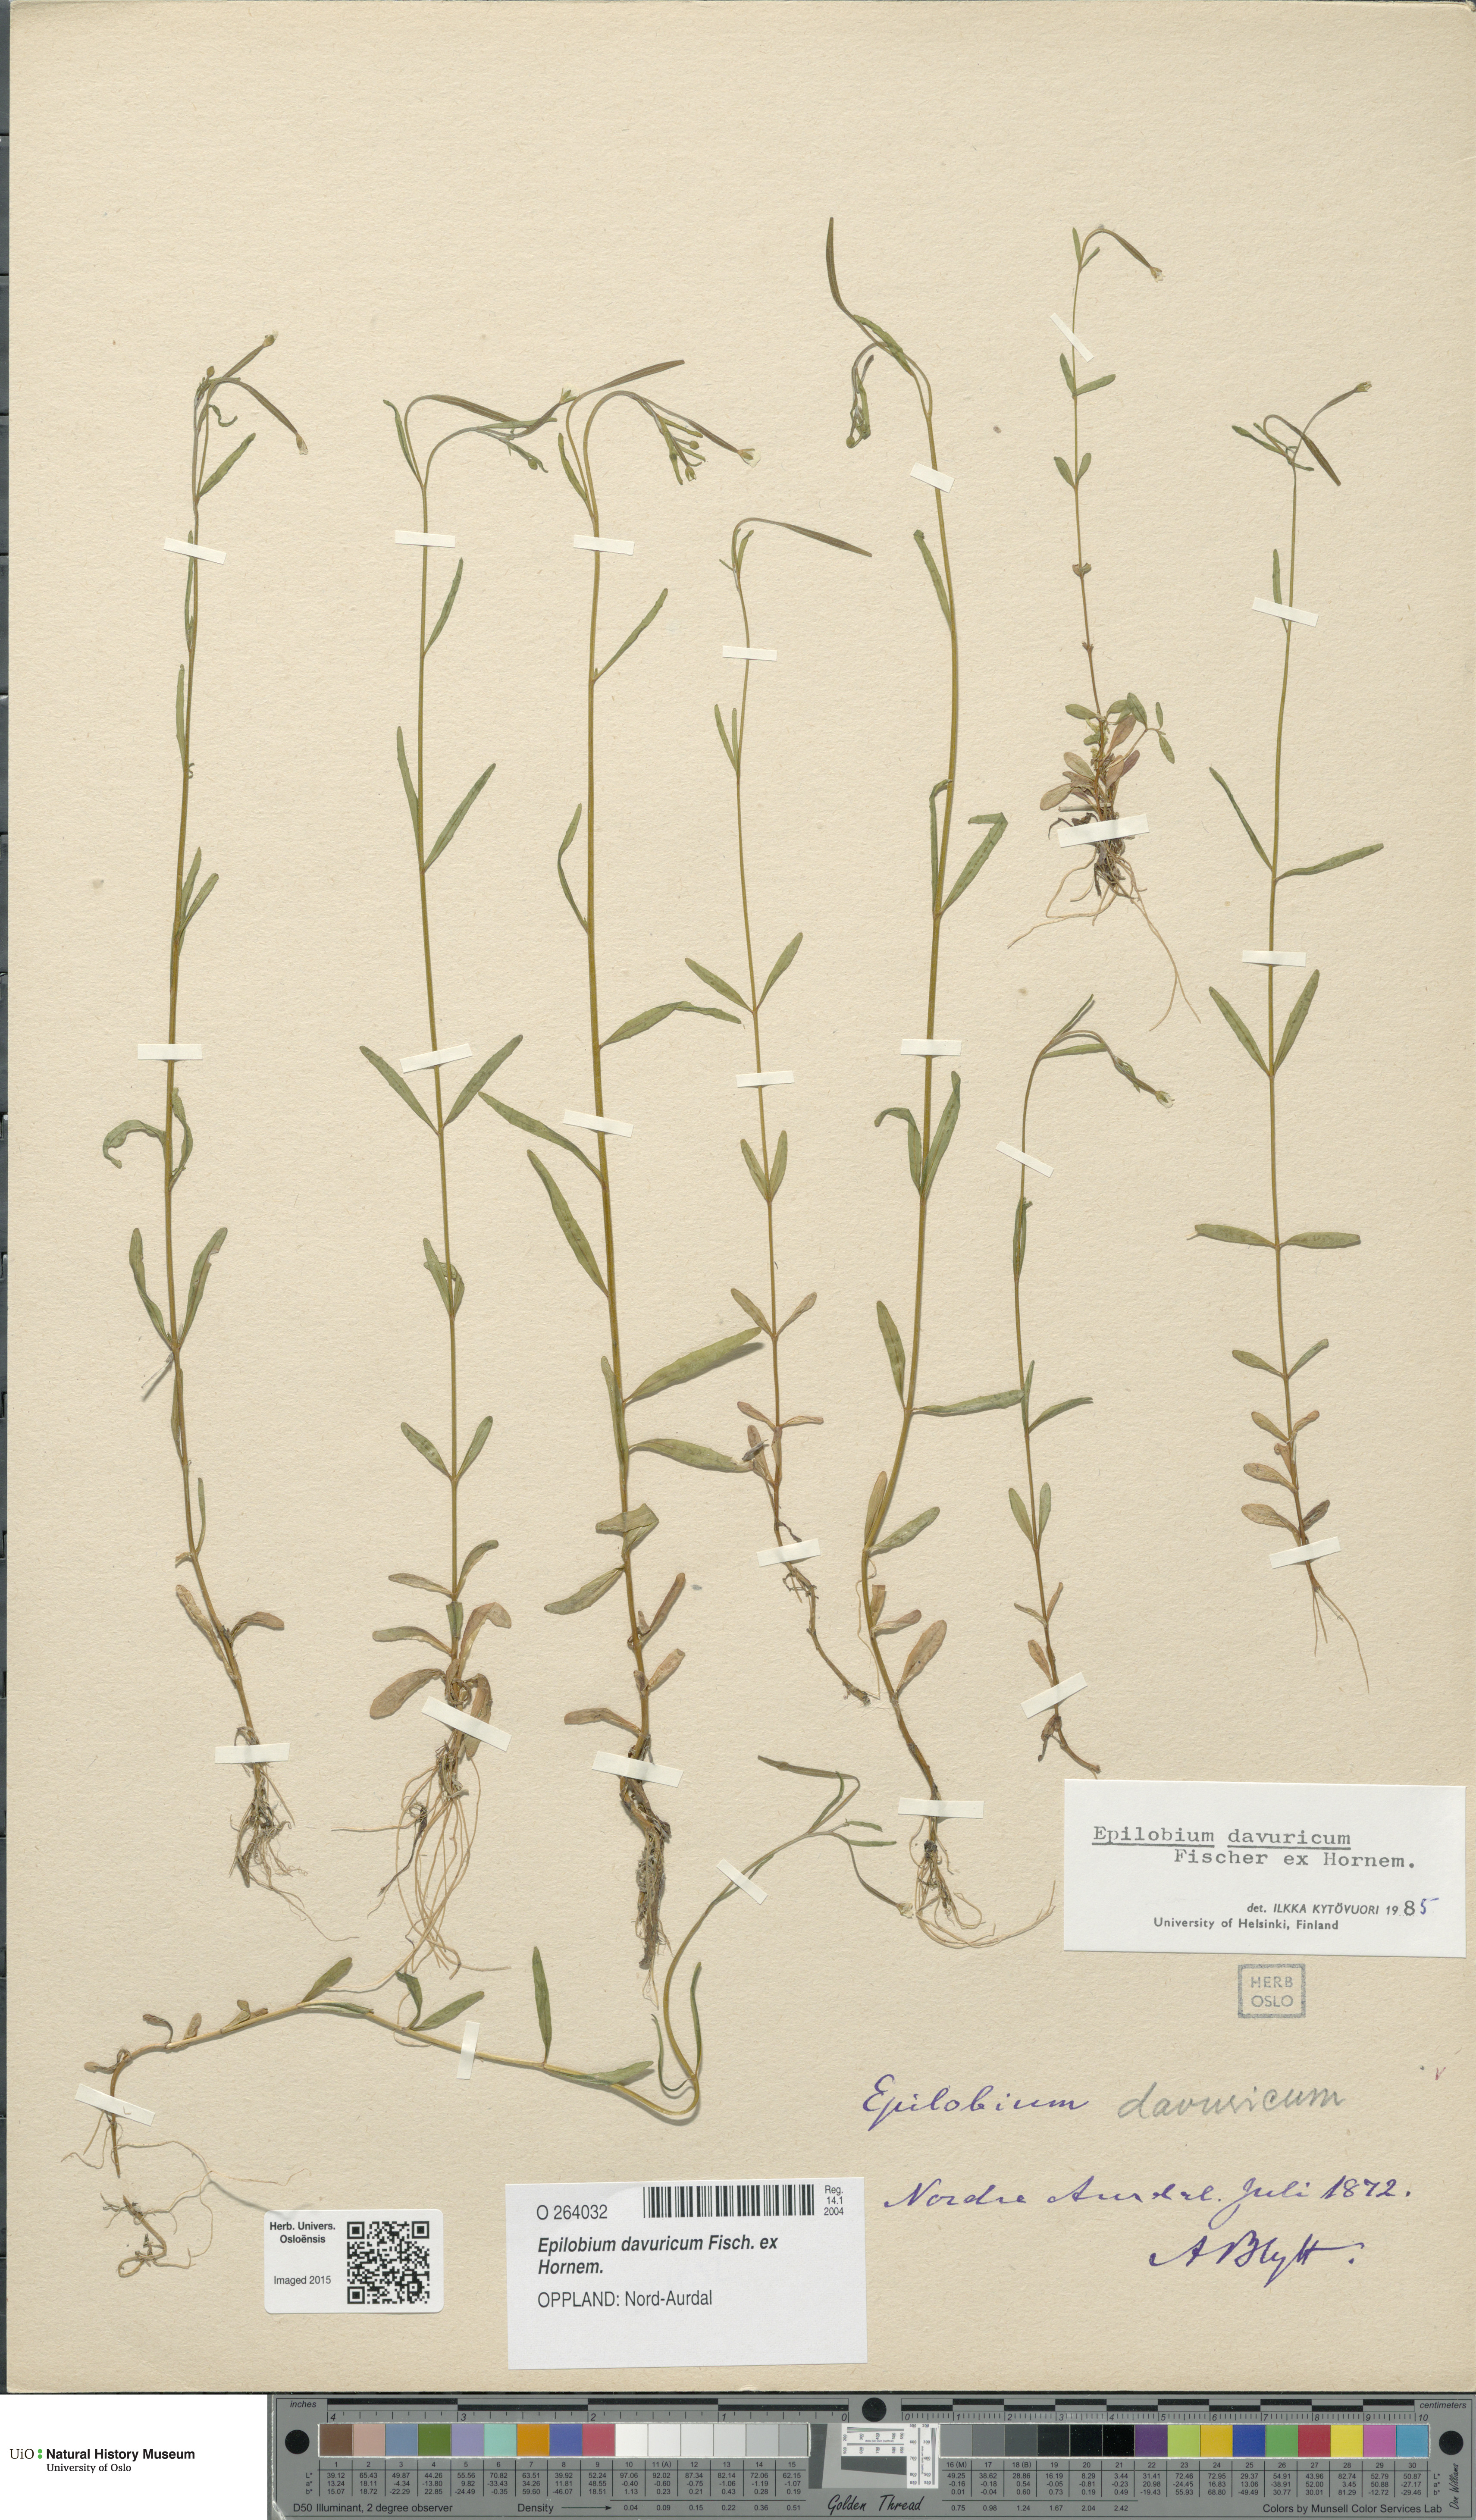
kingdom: Plantae
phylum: Tracheophyta
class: Magnoliopsida
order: Myrtales
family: Onagraceae
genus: Epilobium
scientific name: Epilobium davuricum
